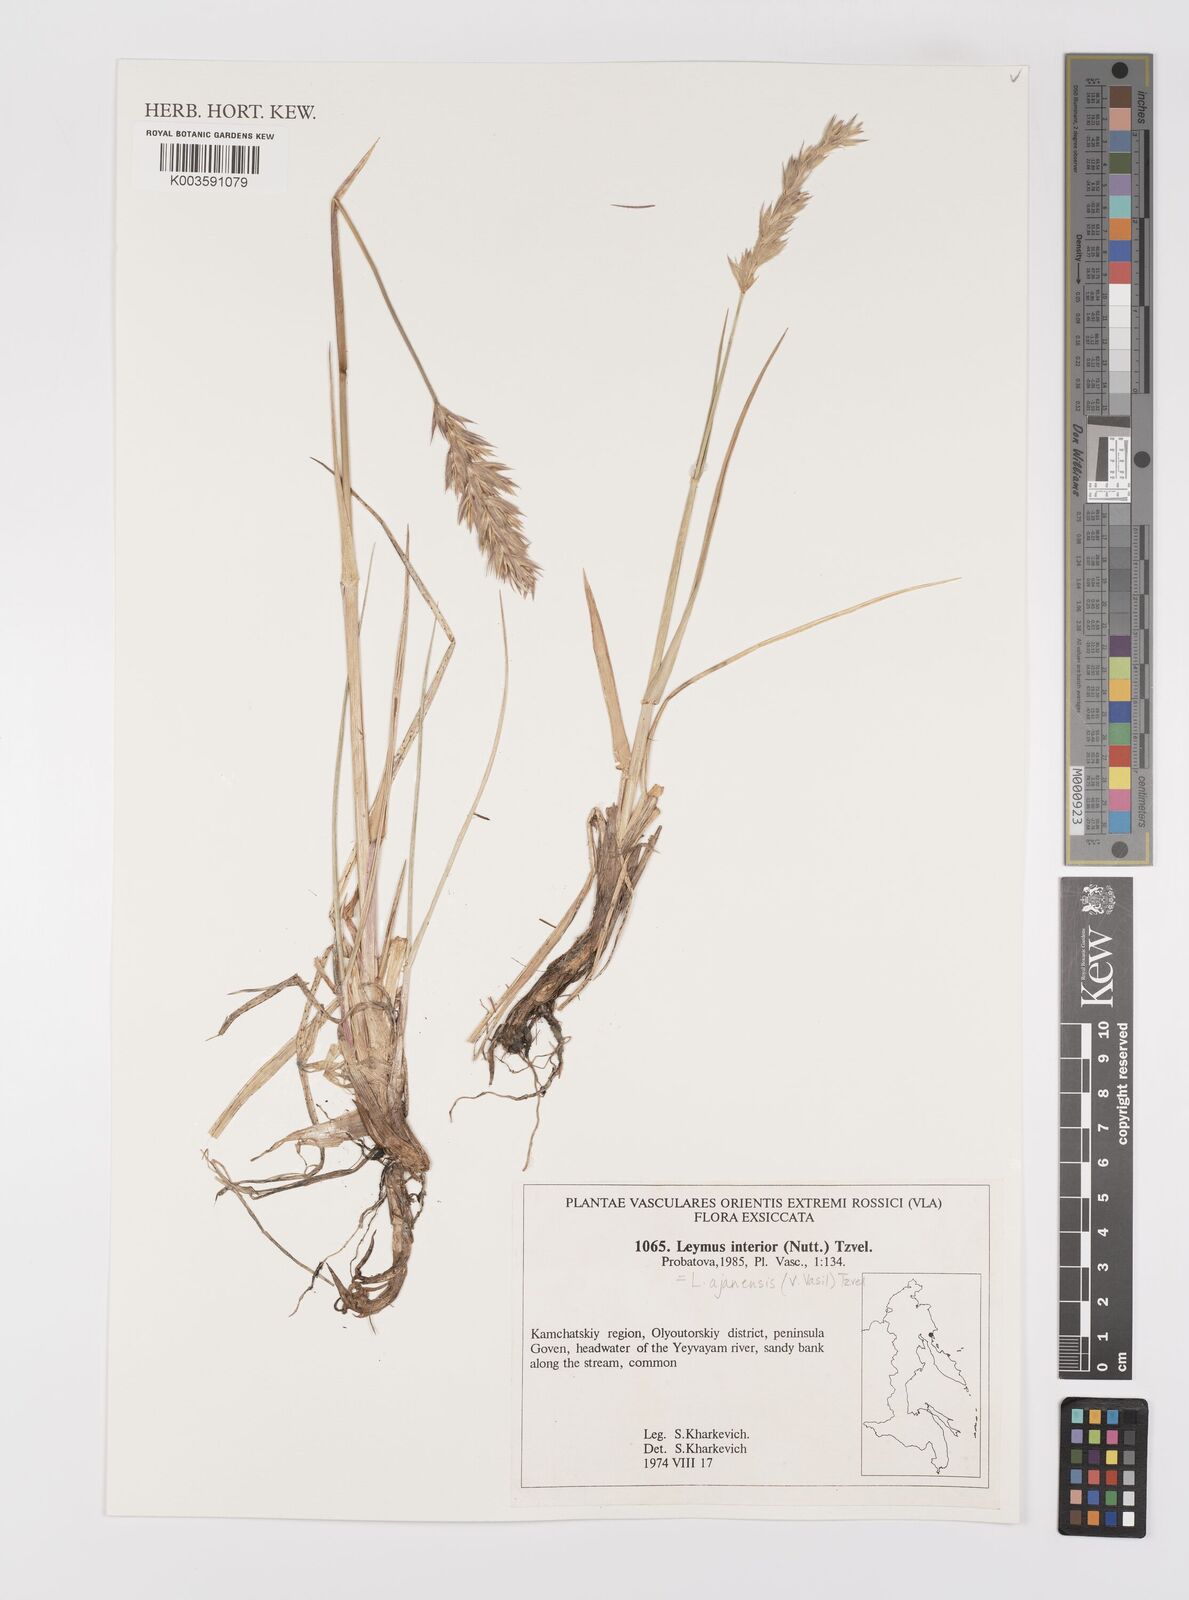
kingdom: Plantae
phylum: Tracheophyta
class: Liliopsida
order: Poales
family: Poaceae
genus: Leymus
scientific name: Leymus mollis
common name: American dune grass
